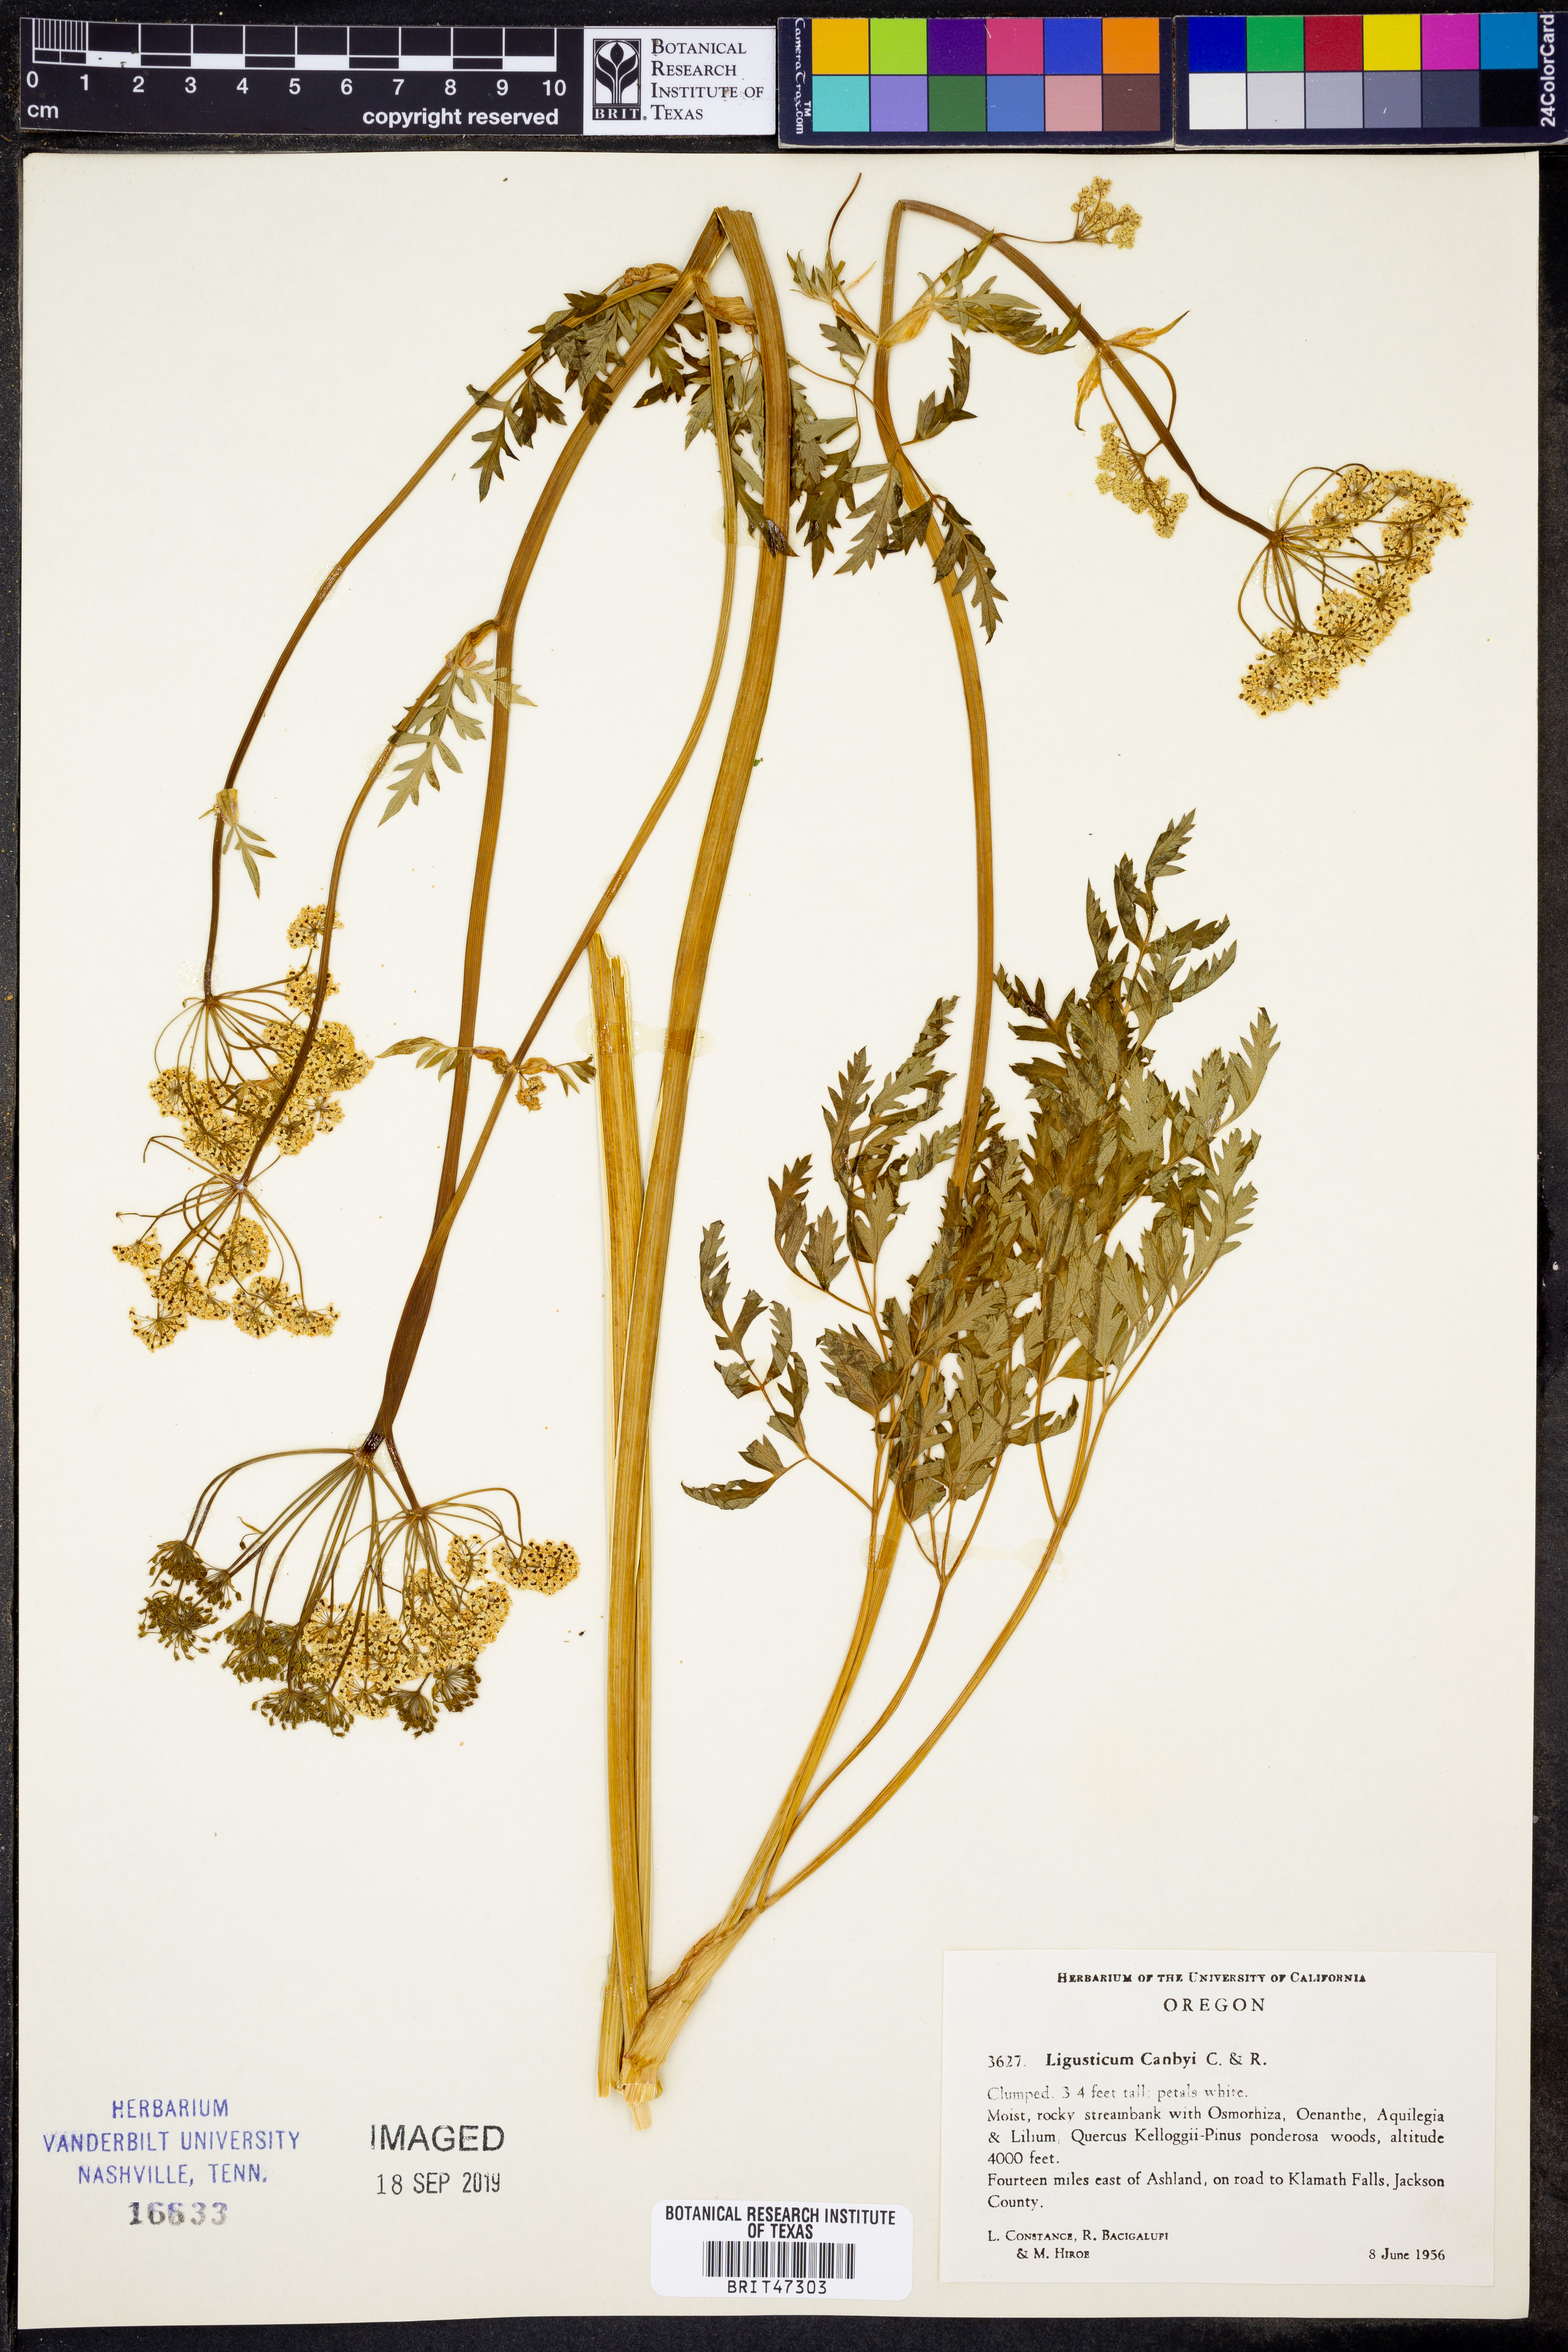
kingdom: Plantae
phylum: Tracheophyta
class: Magnoliopsida
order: Apiales
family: Apiaceae
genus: Ligusticum
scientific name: Ligusticum canbyi
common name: Canby’s licorice-root
